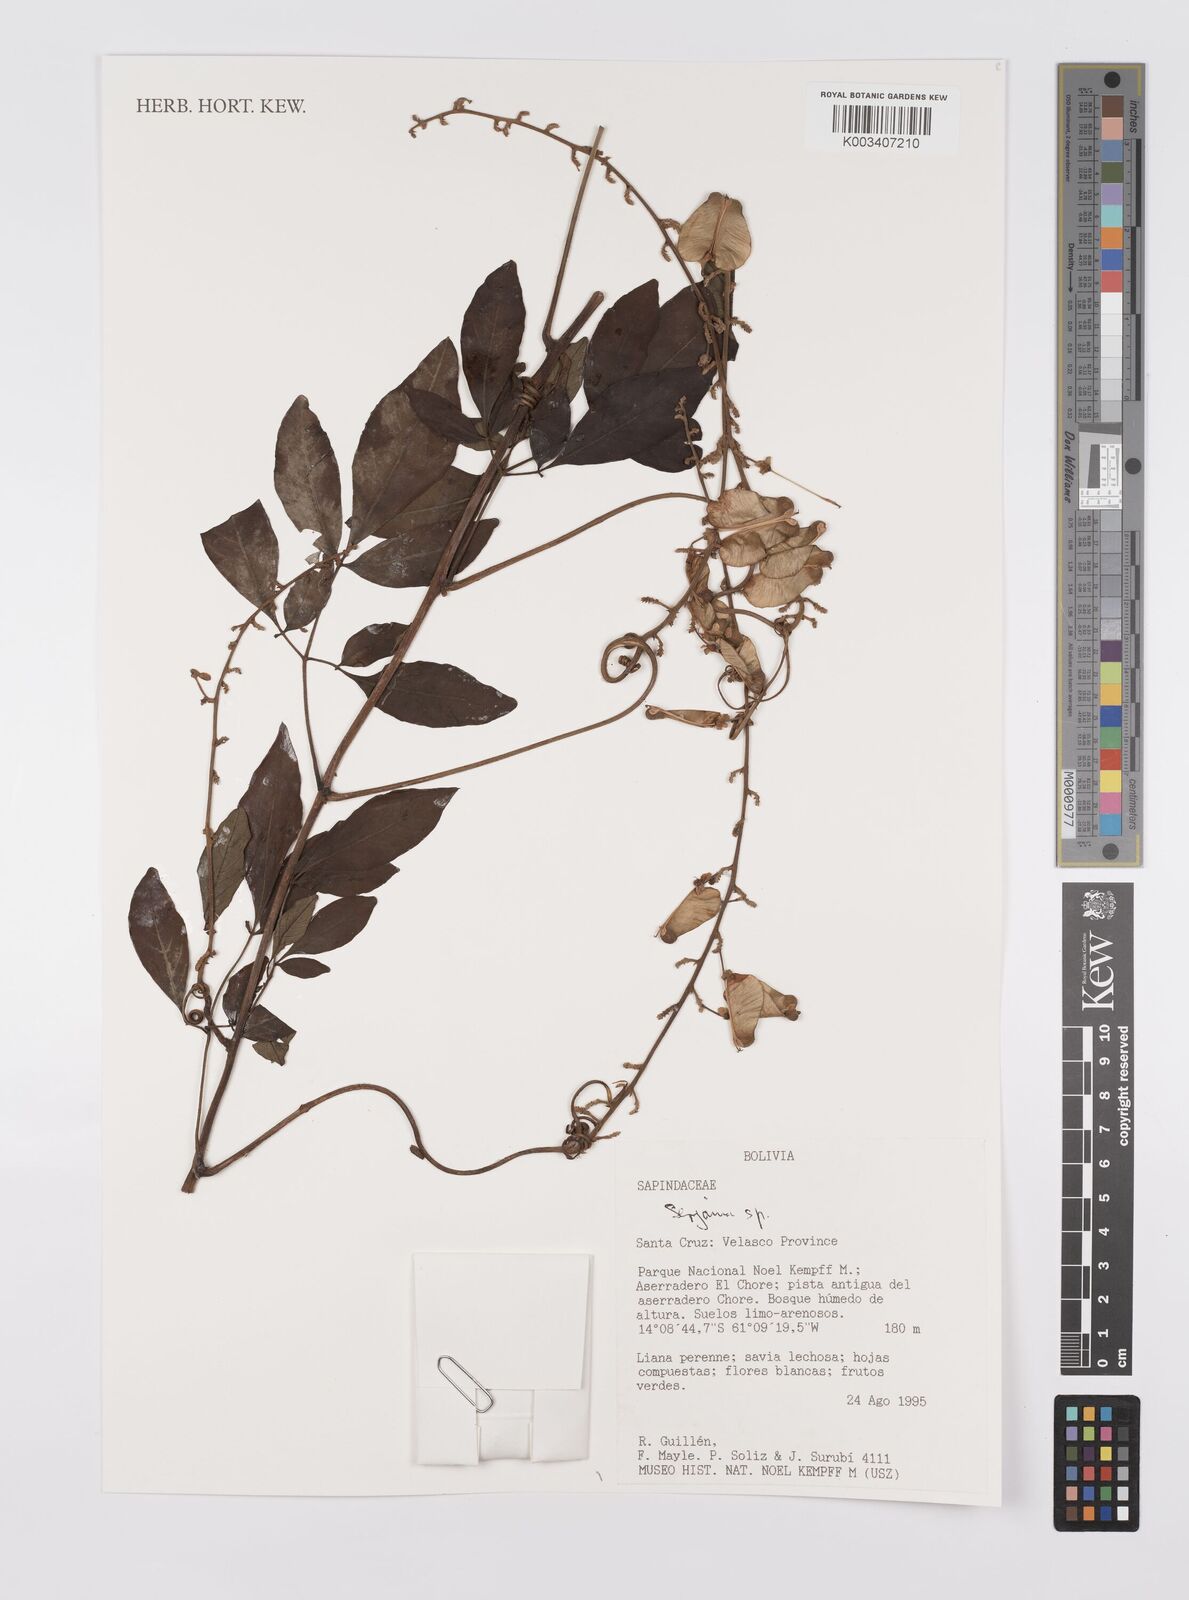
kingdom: Plantae
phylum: Tracheophyta
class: Magnoliopsida
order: Sapindales
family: Sapindaceae
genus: Serjania
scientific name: Serjania
